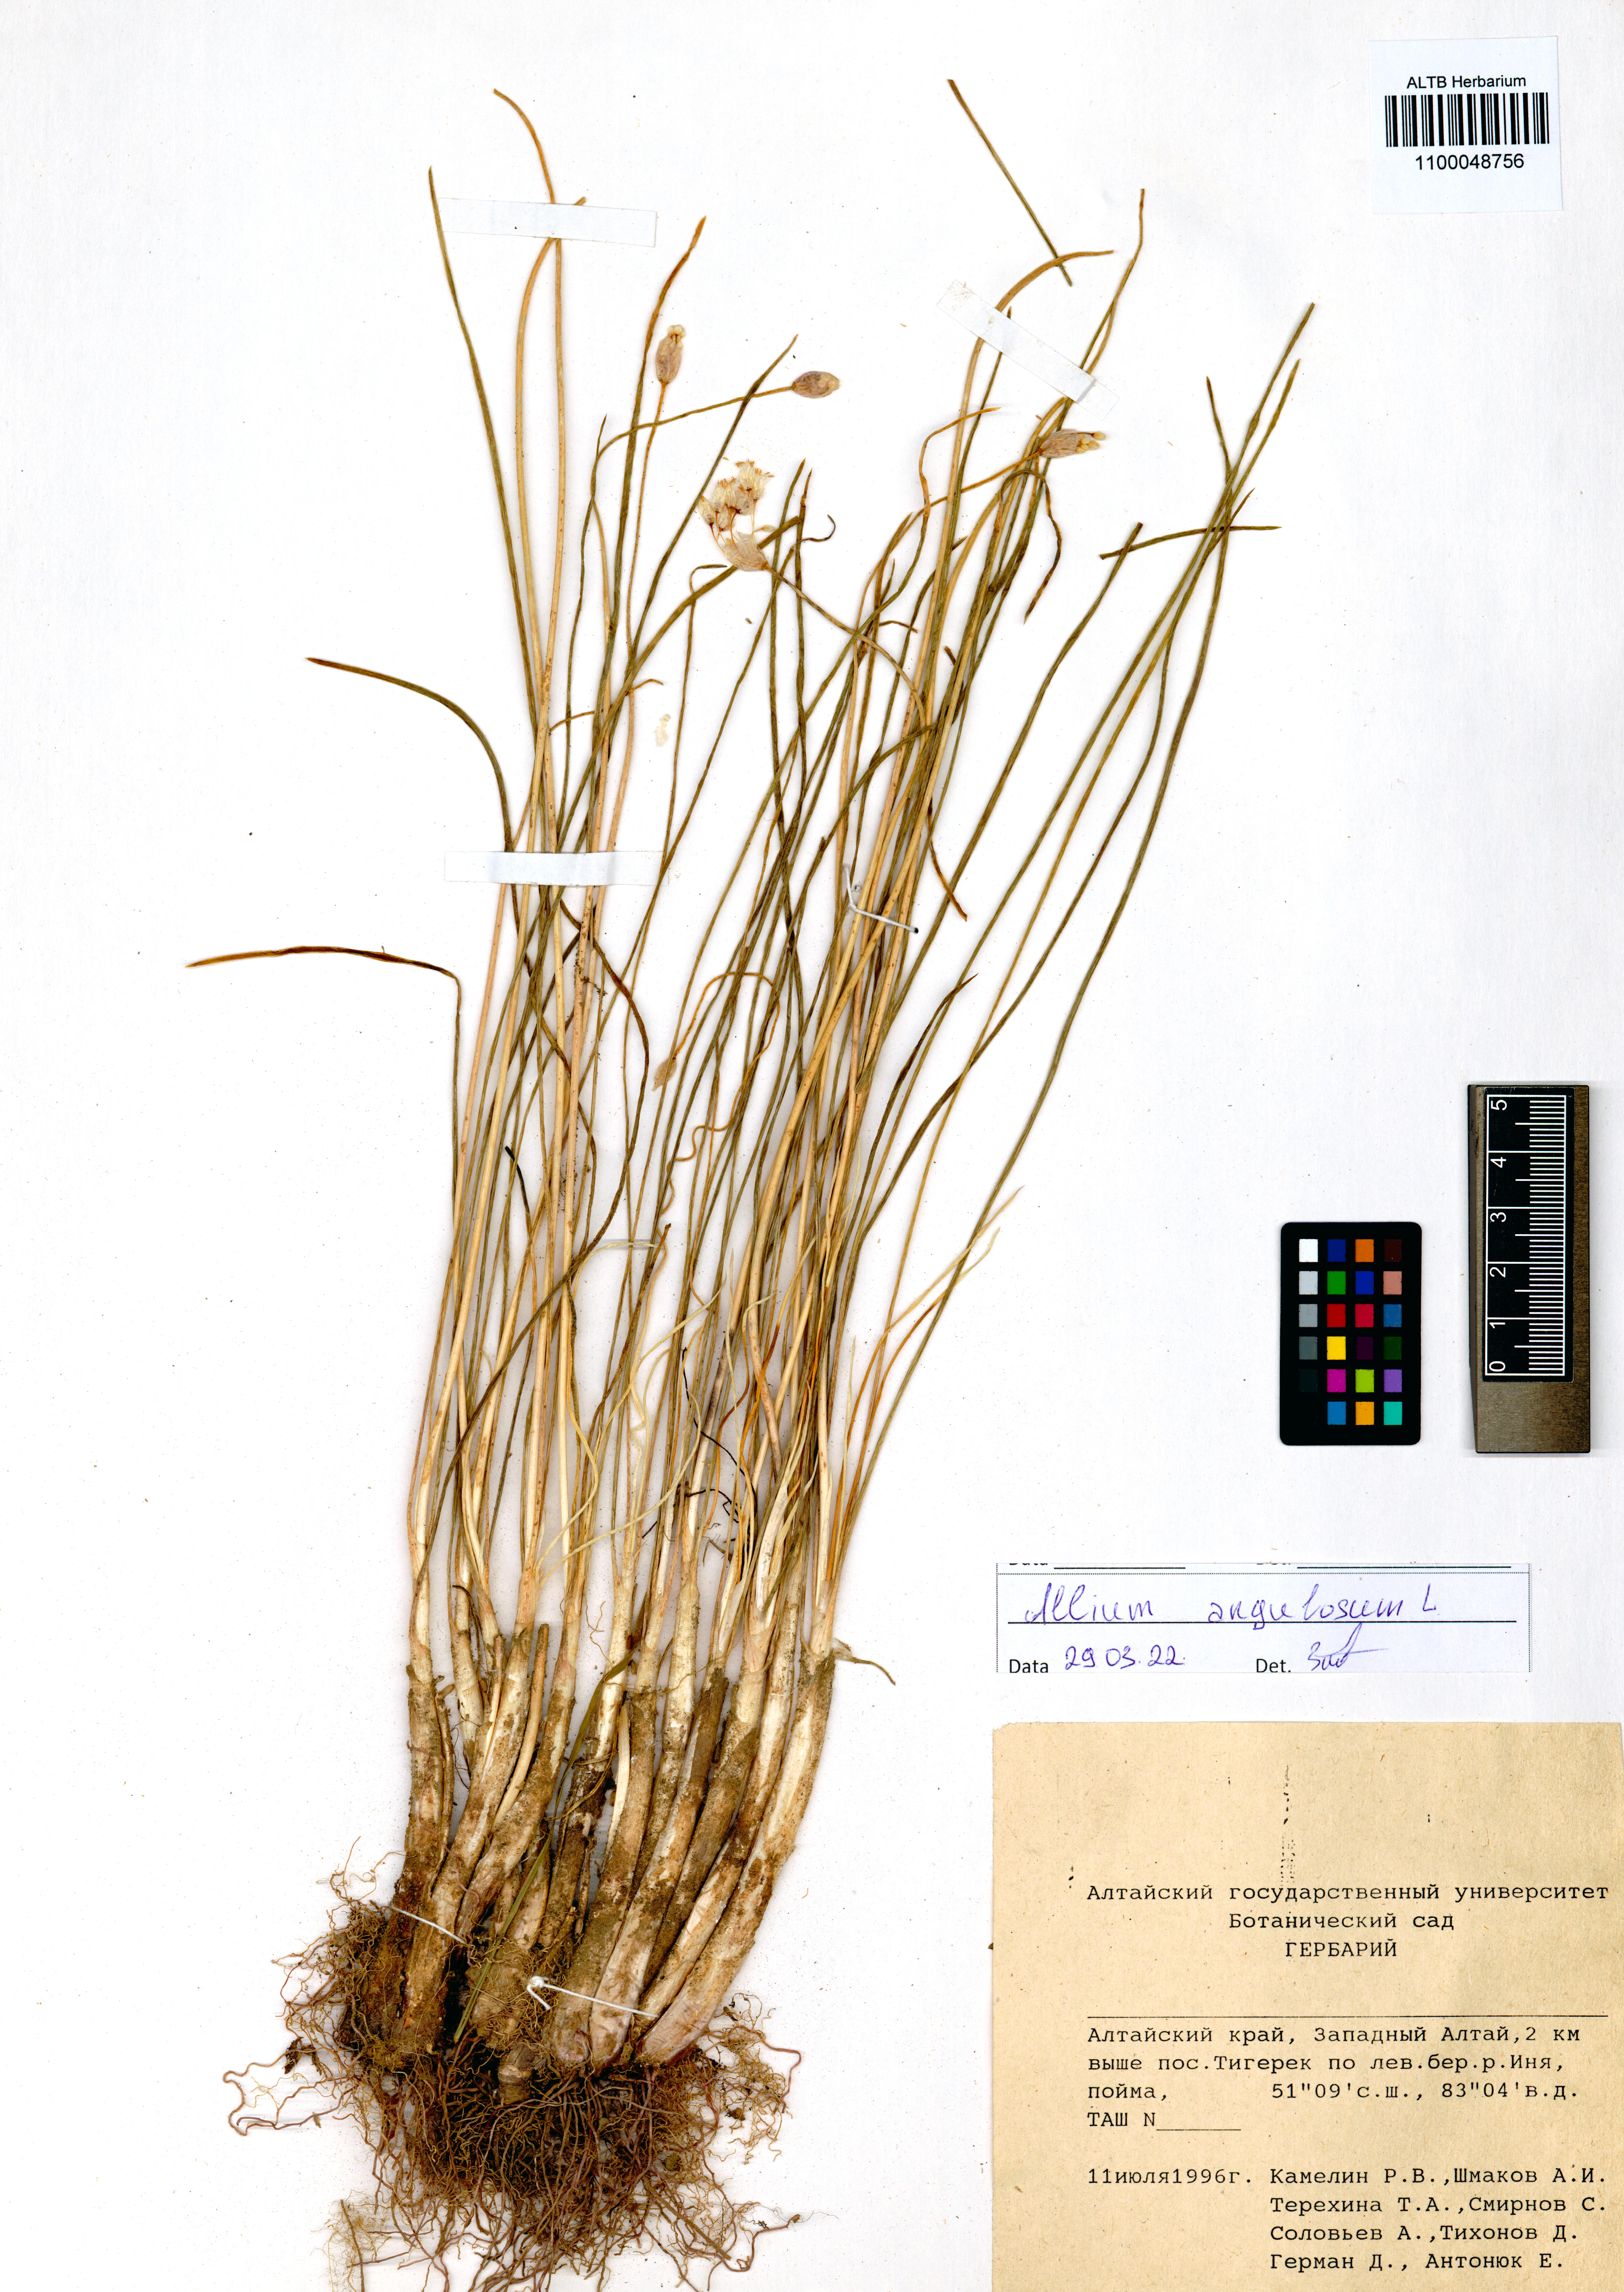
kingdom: Plantae
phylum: Tracheophyta
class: Liliopsida
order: Asparagales
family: Amaryllidaceae
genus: Allium
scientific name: Allium angulosum
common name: Mouse garlic
